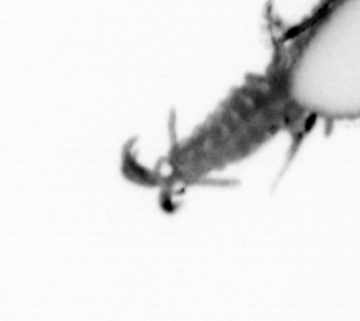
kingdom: Animalia
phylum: Annelida
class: Polychaeta
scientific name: Polychaeta
